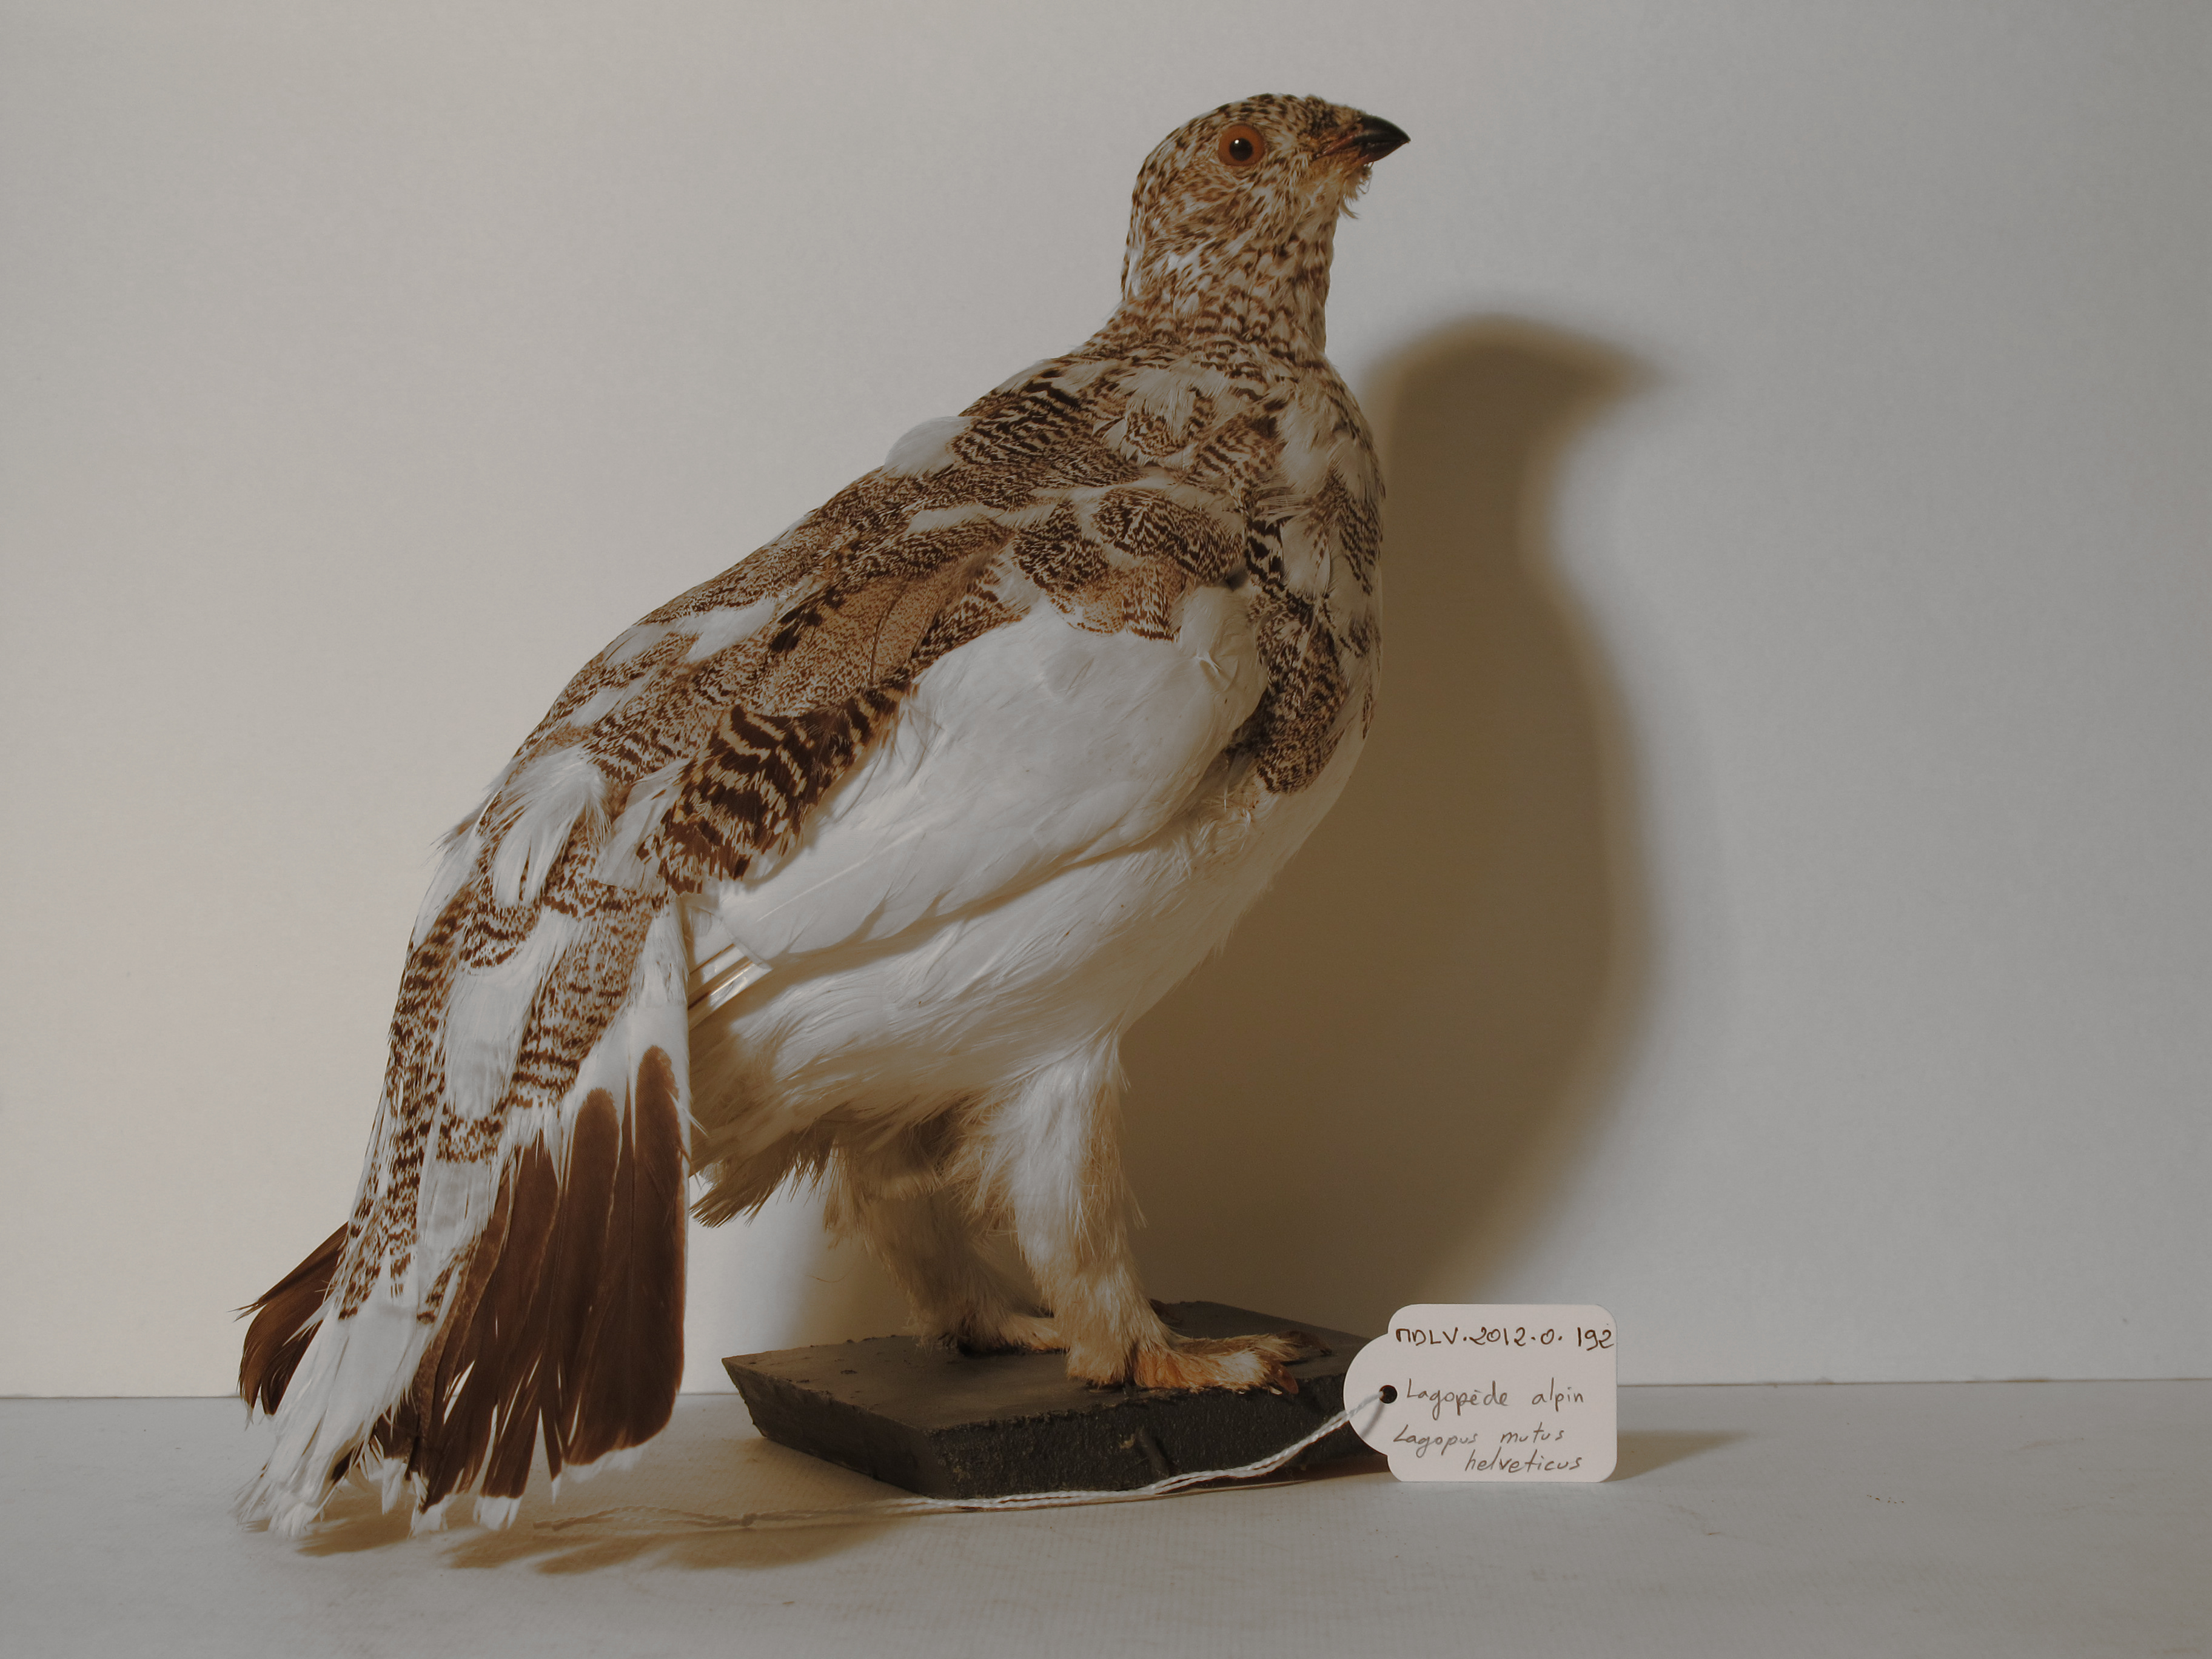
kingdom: Animalia
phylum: Chordata
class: Aves
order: Galliformes
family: Phasianidae
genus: Lagopus
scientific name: Lagopus muta
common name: Rock Ptarmigan
